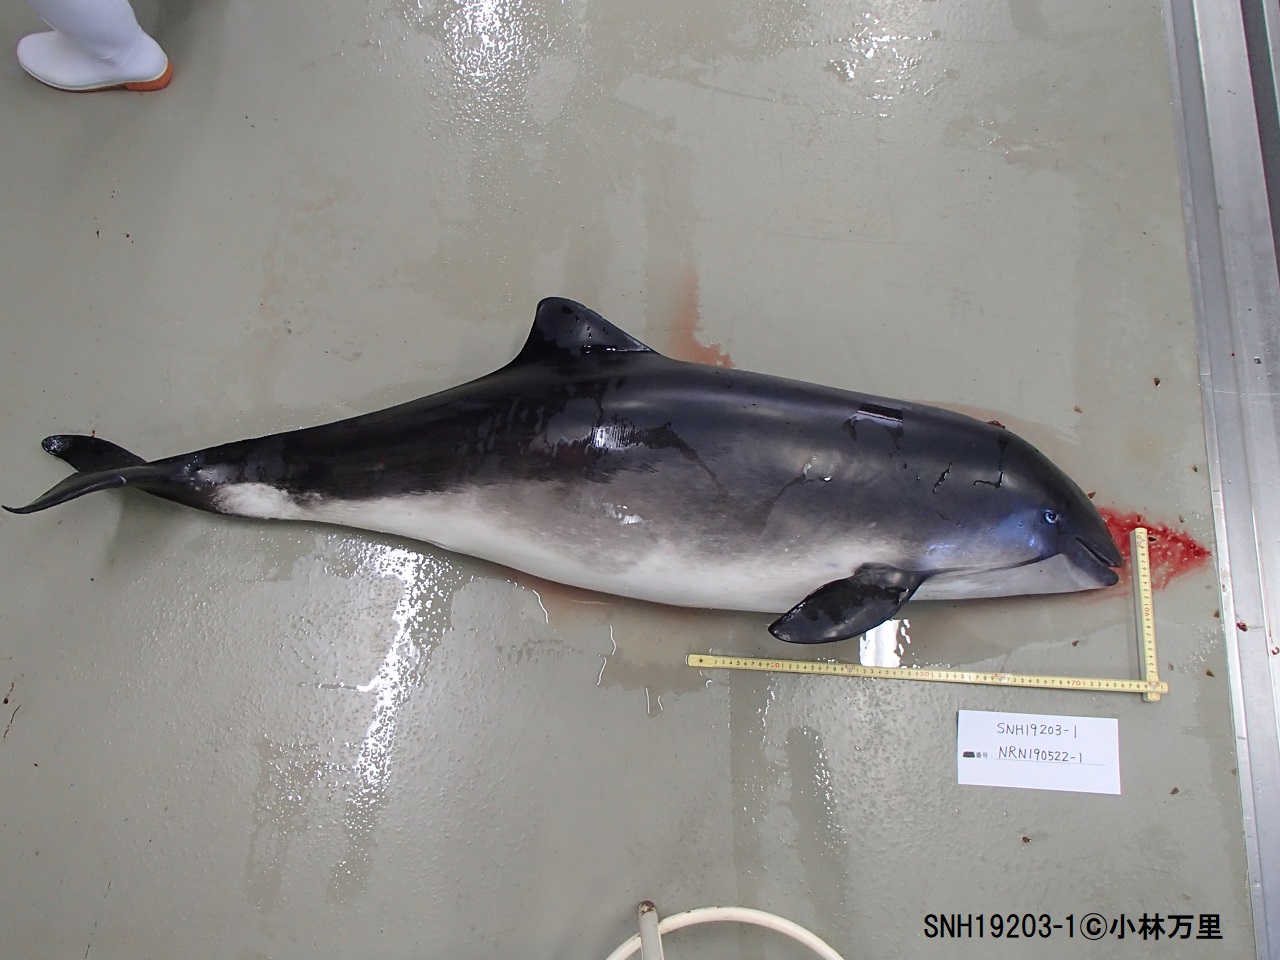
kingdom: Animalia
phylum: Chordata
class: Mammalia
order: Cetacea
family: Phocoenidae
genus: Phocoena
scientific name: Phocoena phocoena
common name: Harbour porpoise
